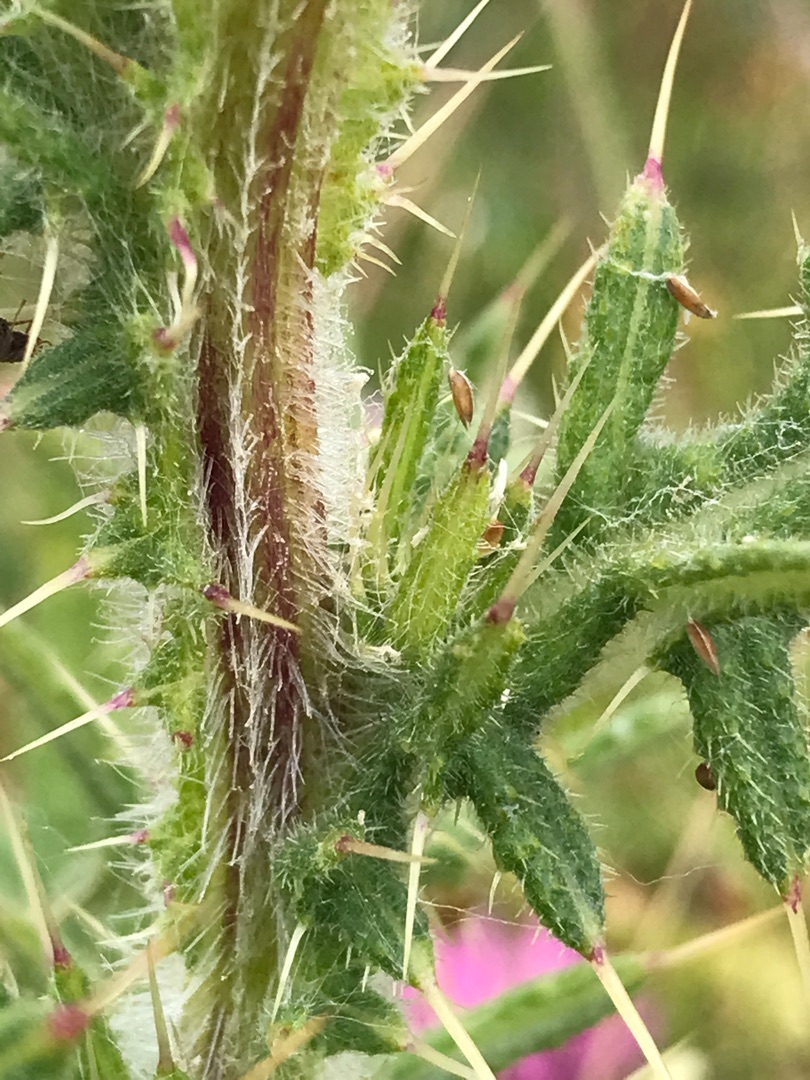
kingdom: Plantae
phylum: Tracheophyta
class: Magnoliopsida
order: Asterales
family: Asteraceae
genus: Cirsium
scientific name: Cirsium vulgare
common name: Horse-tidsel
